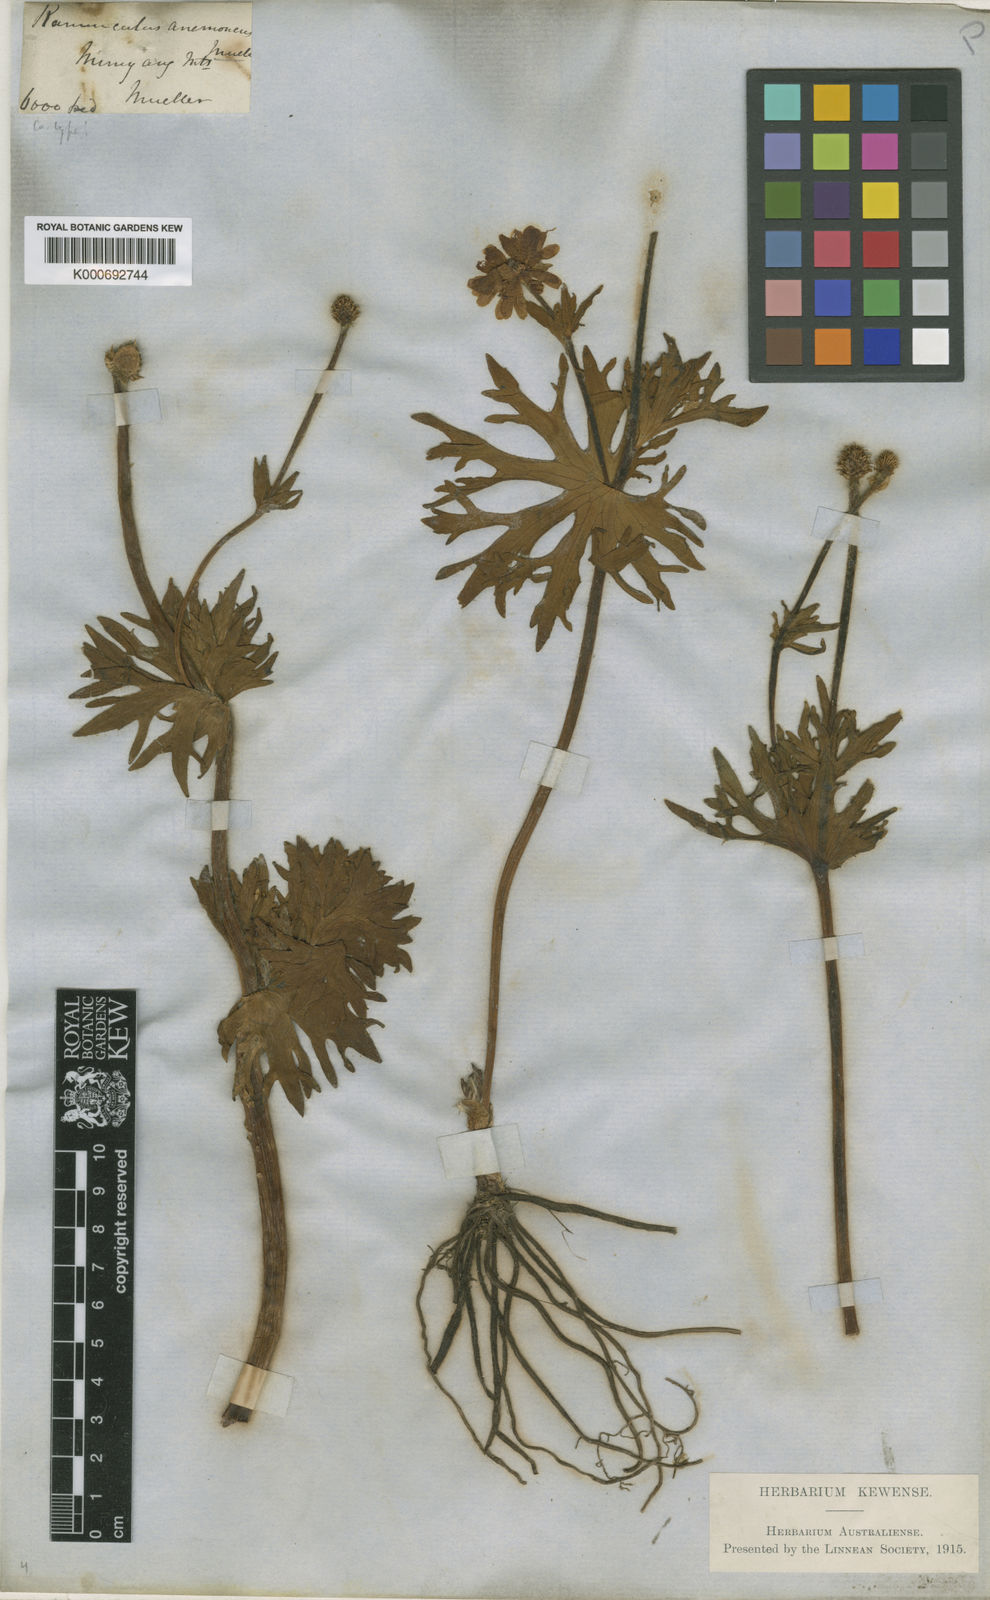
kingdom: Plantae
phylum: Tracheophyta
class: Magnoliopsida
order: Ranunculales
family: Ranunculaceae
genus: Ranunculus
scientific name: Ranunculus anemoneus
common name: Anemone buttercup
